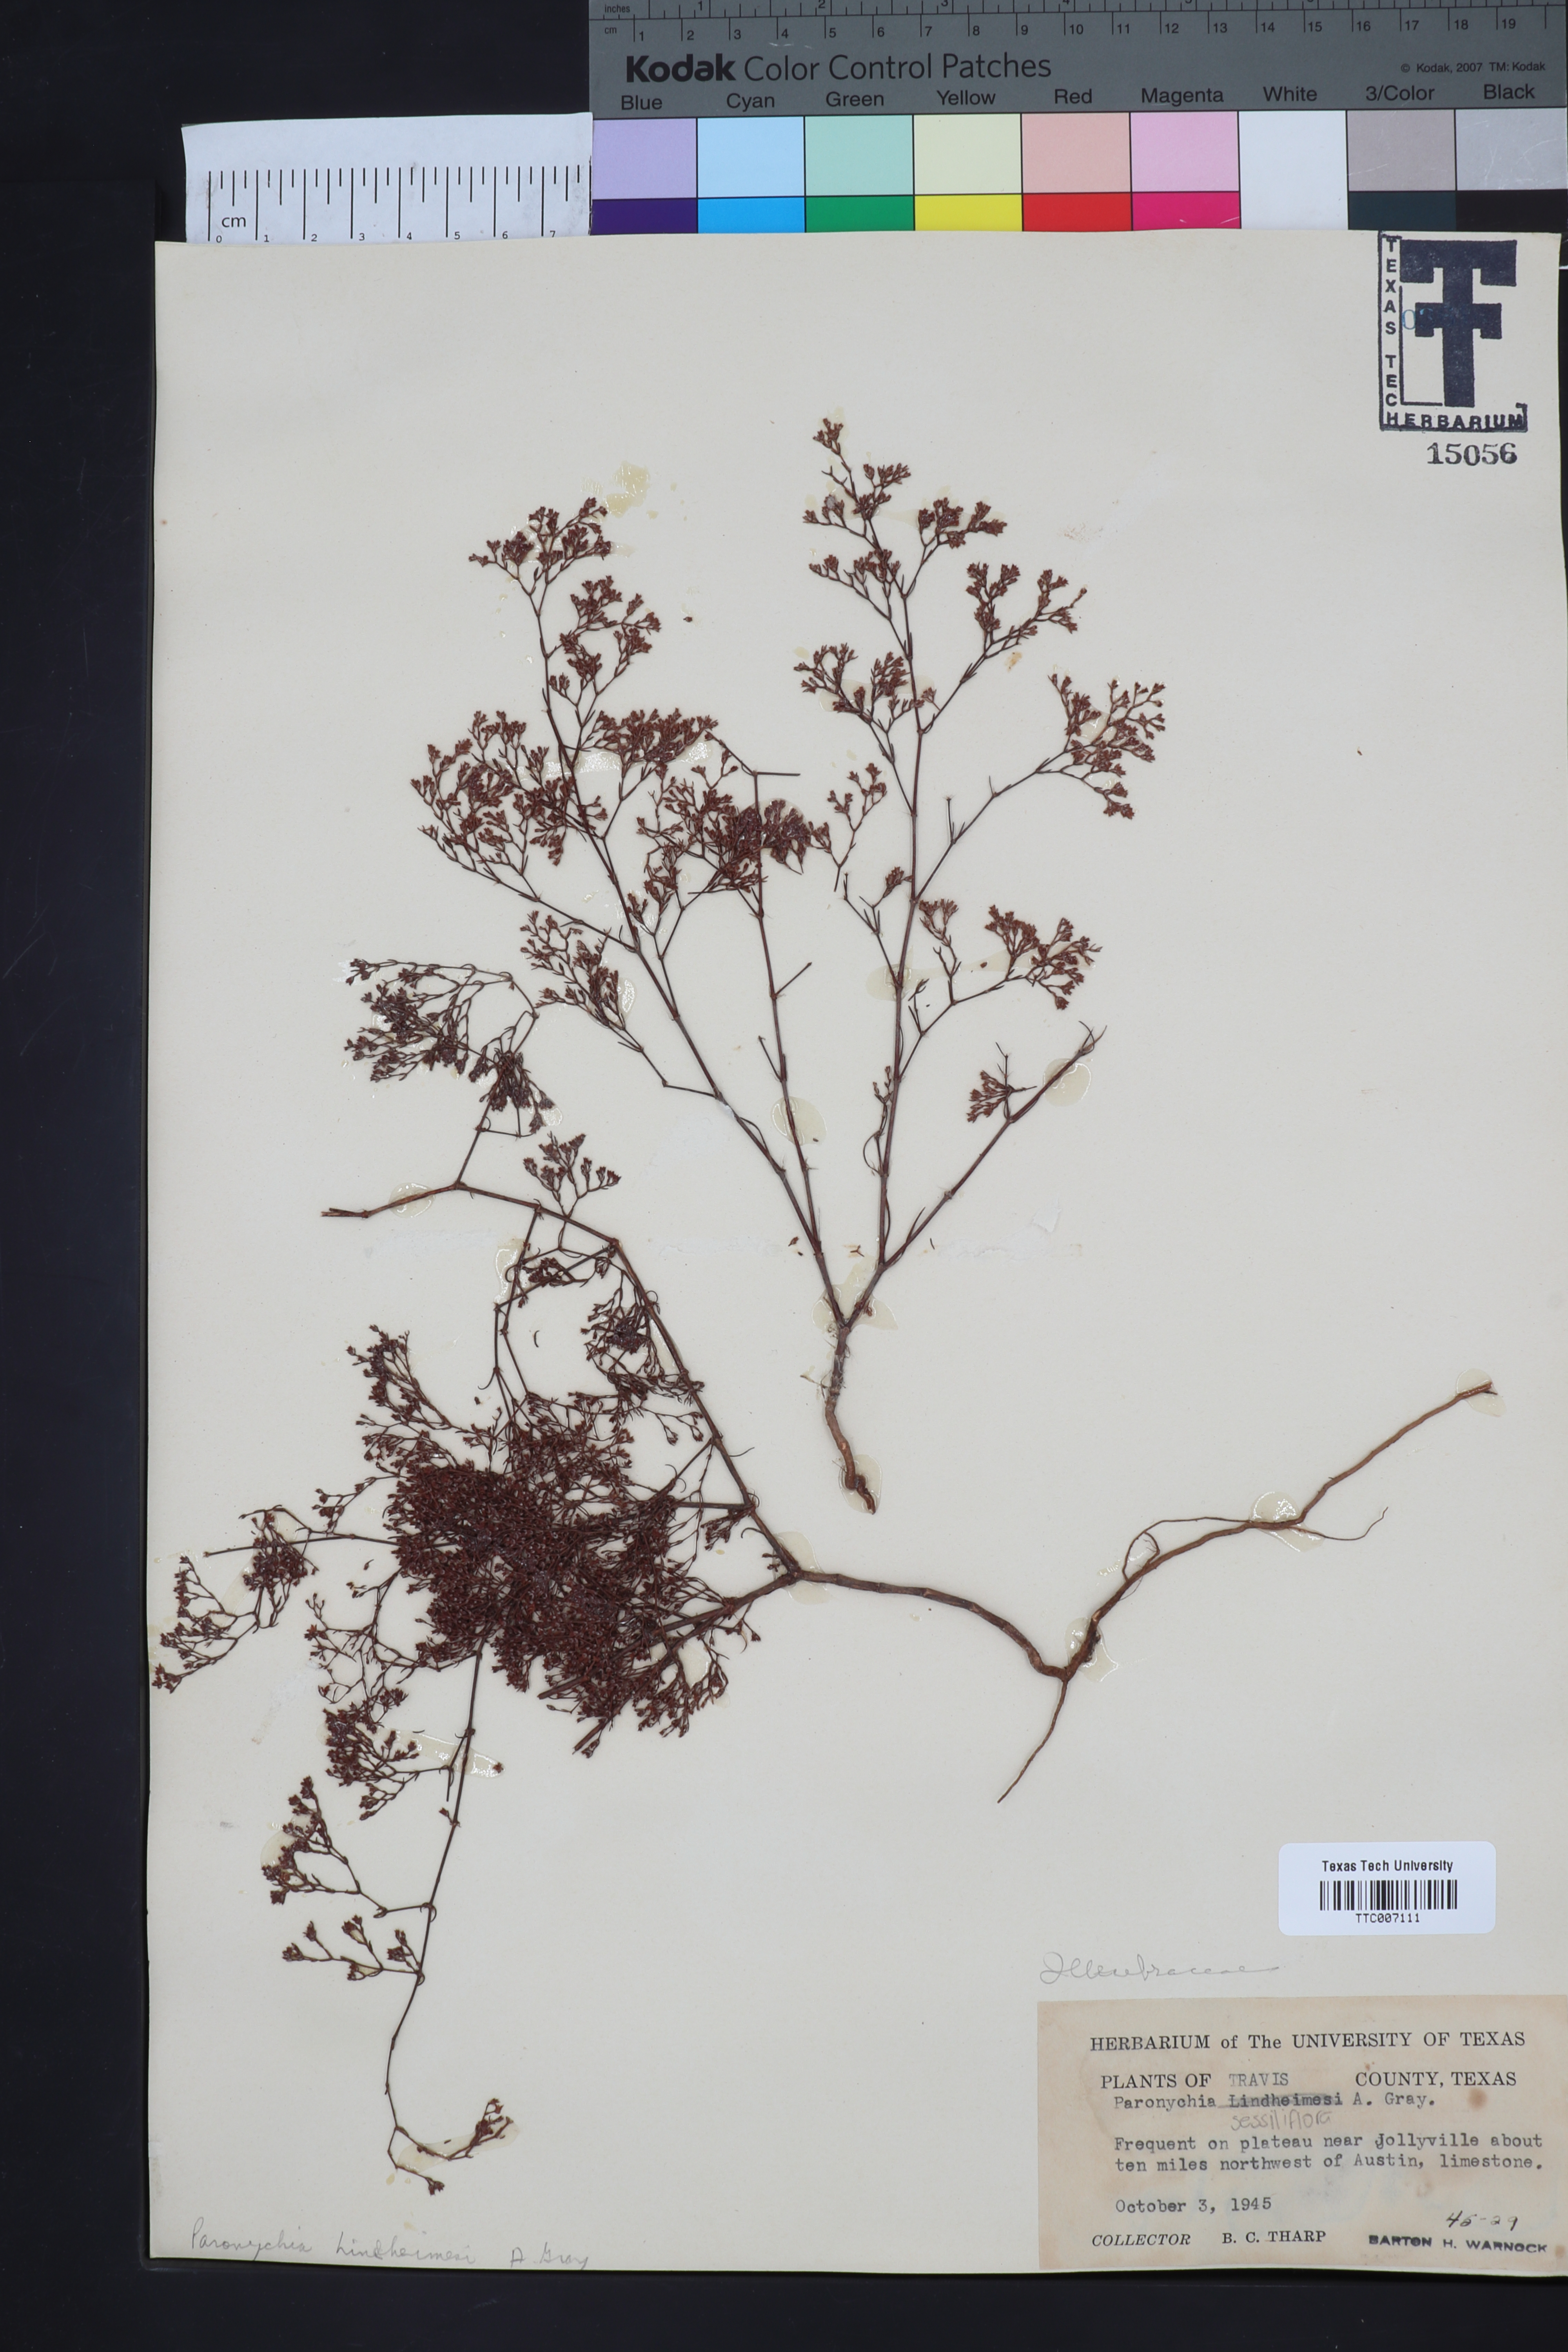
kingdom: Plantae
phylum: Tracheophyta
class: Magnoliopsida
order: Caryophyllales
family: Caryophyllaceae
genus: Paronychia
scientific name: Paronychia lindheimeri
